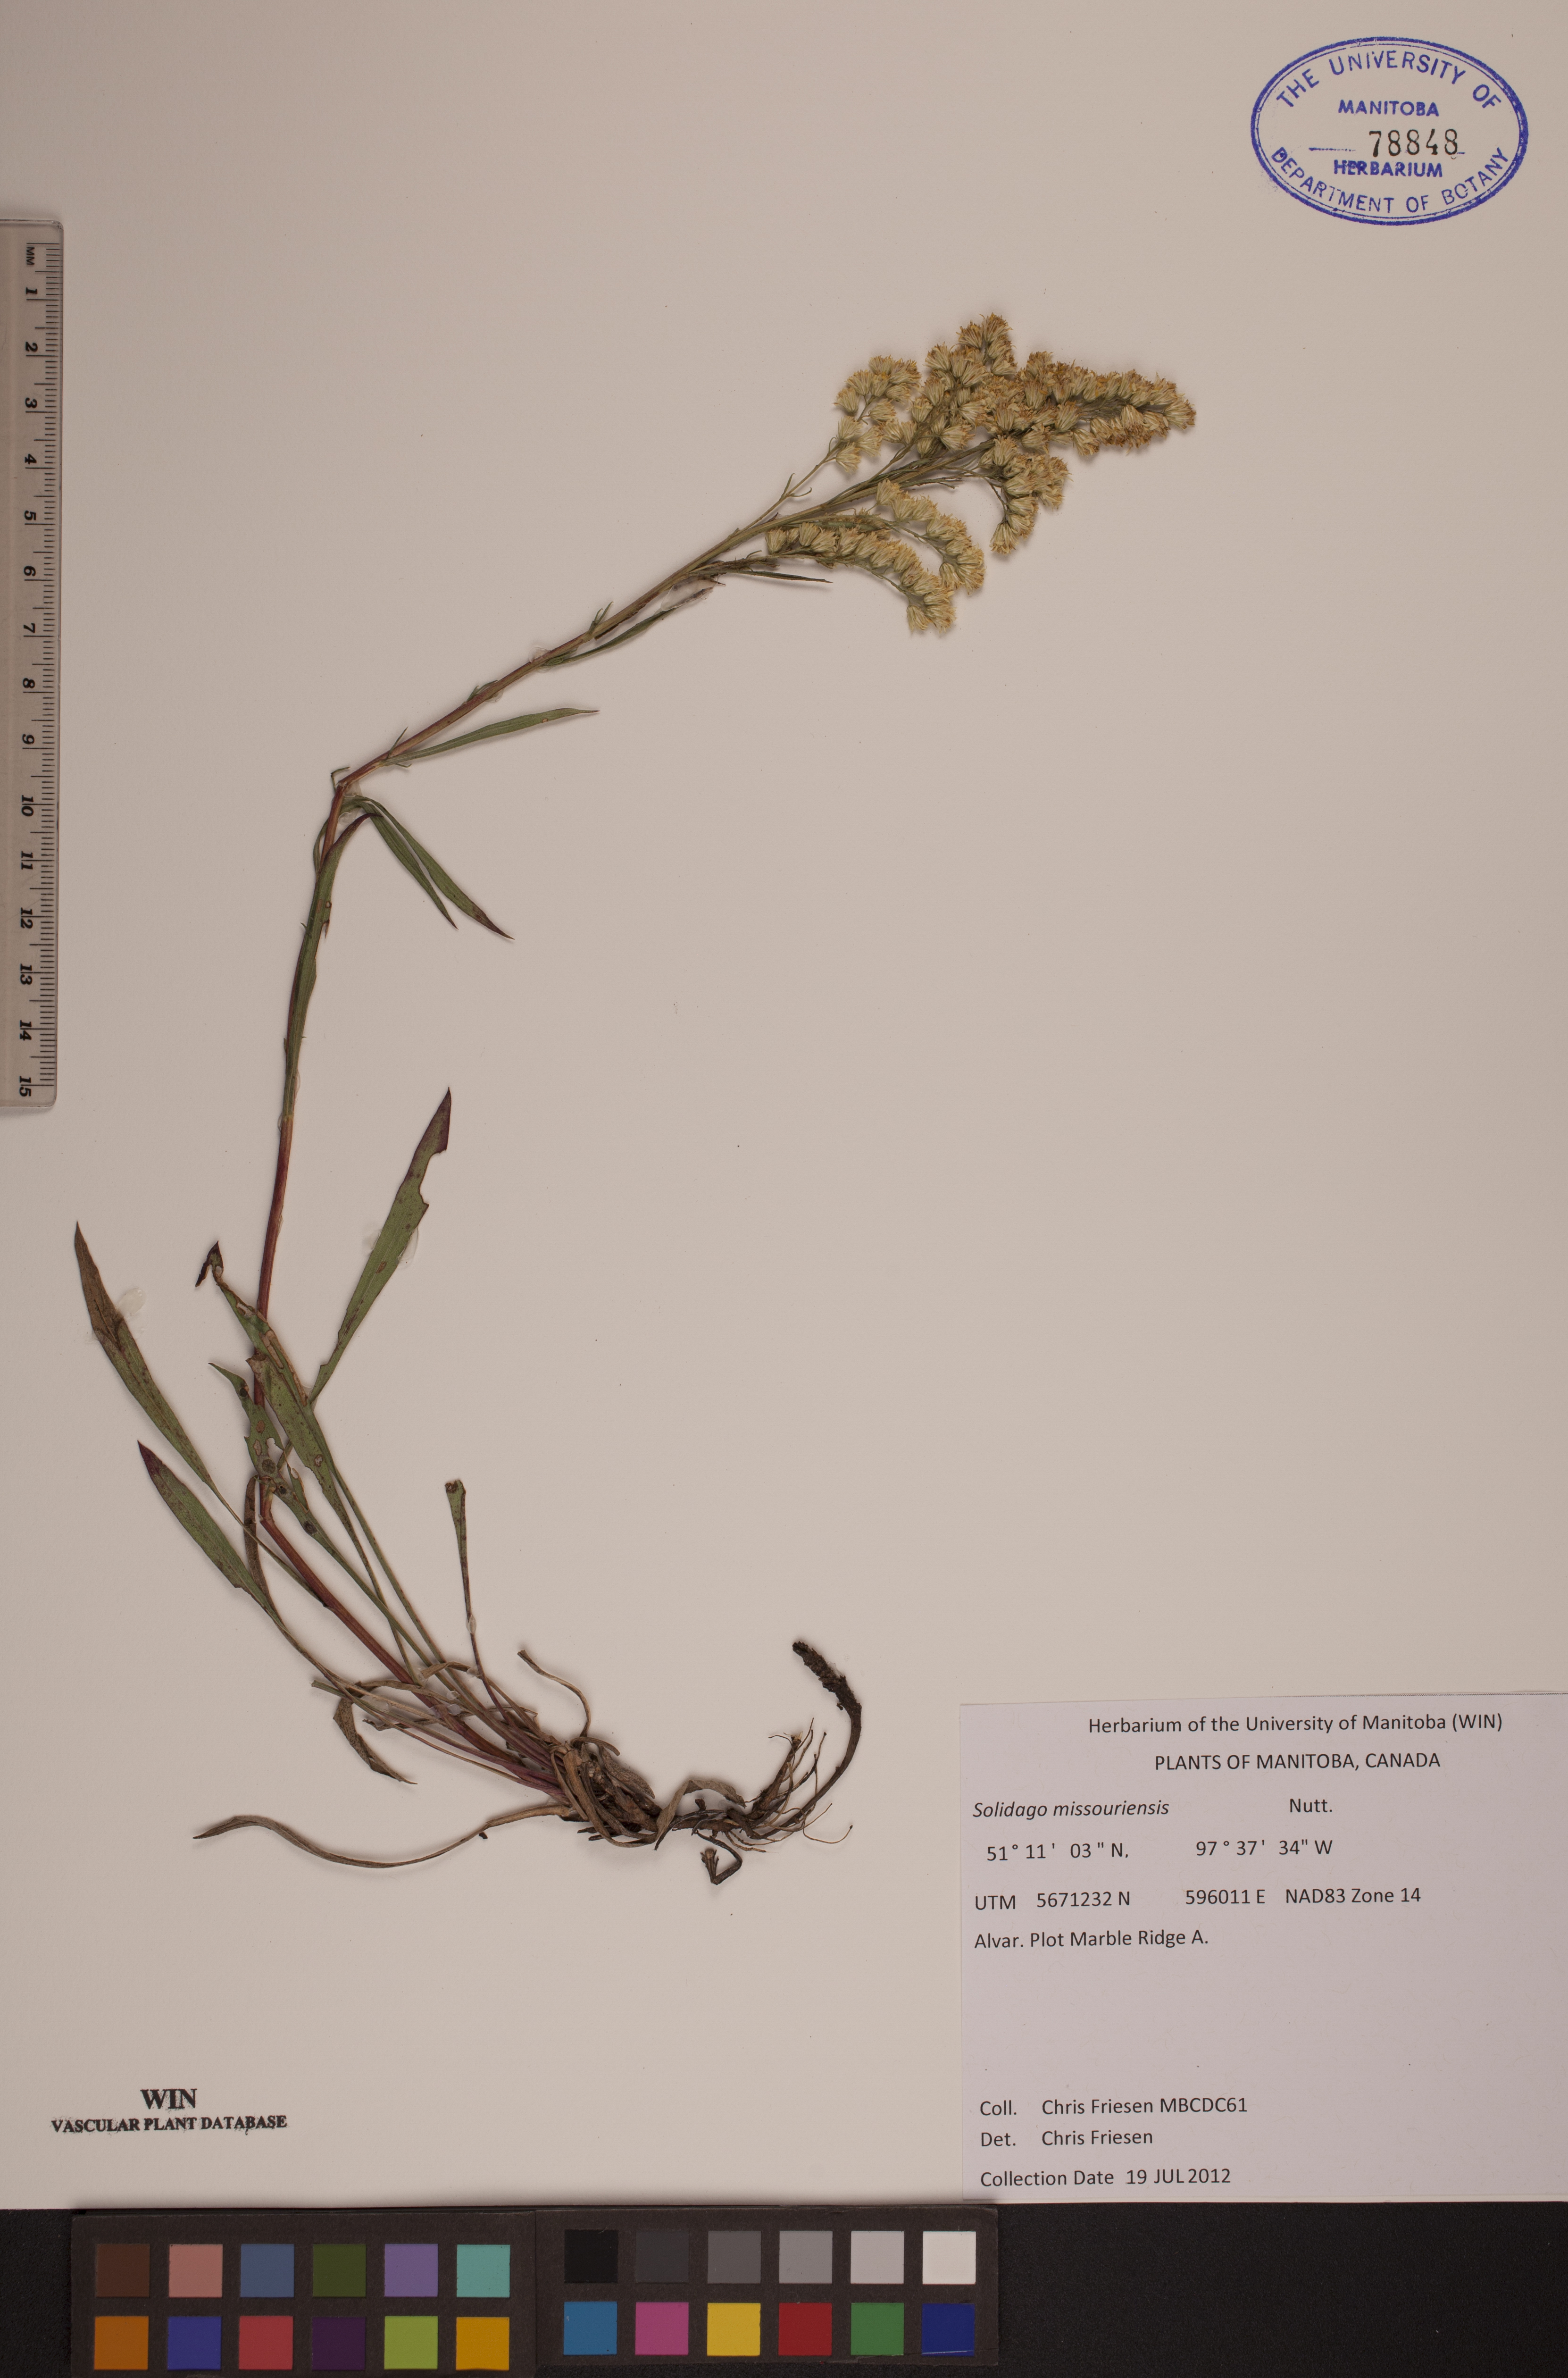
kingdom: Plantae
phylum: Tracheophyta
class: Magnoliopsida
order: Asterales
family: Asteraceae
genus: Solidago
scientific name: Solidago missouriensis
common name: Prairie goldenrod
